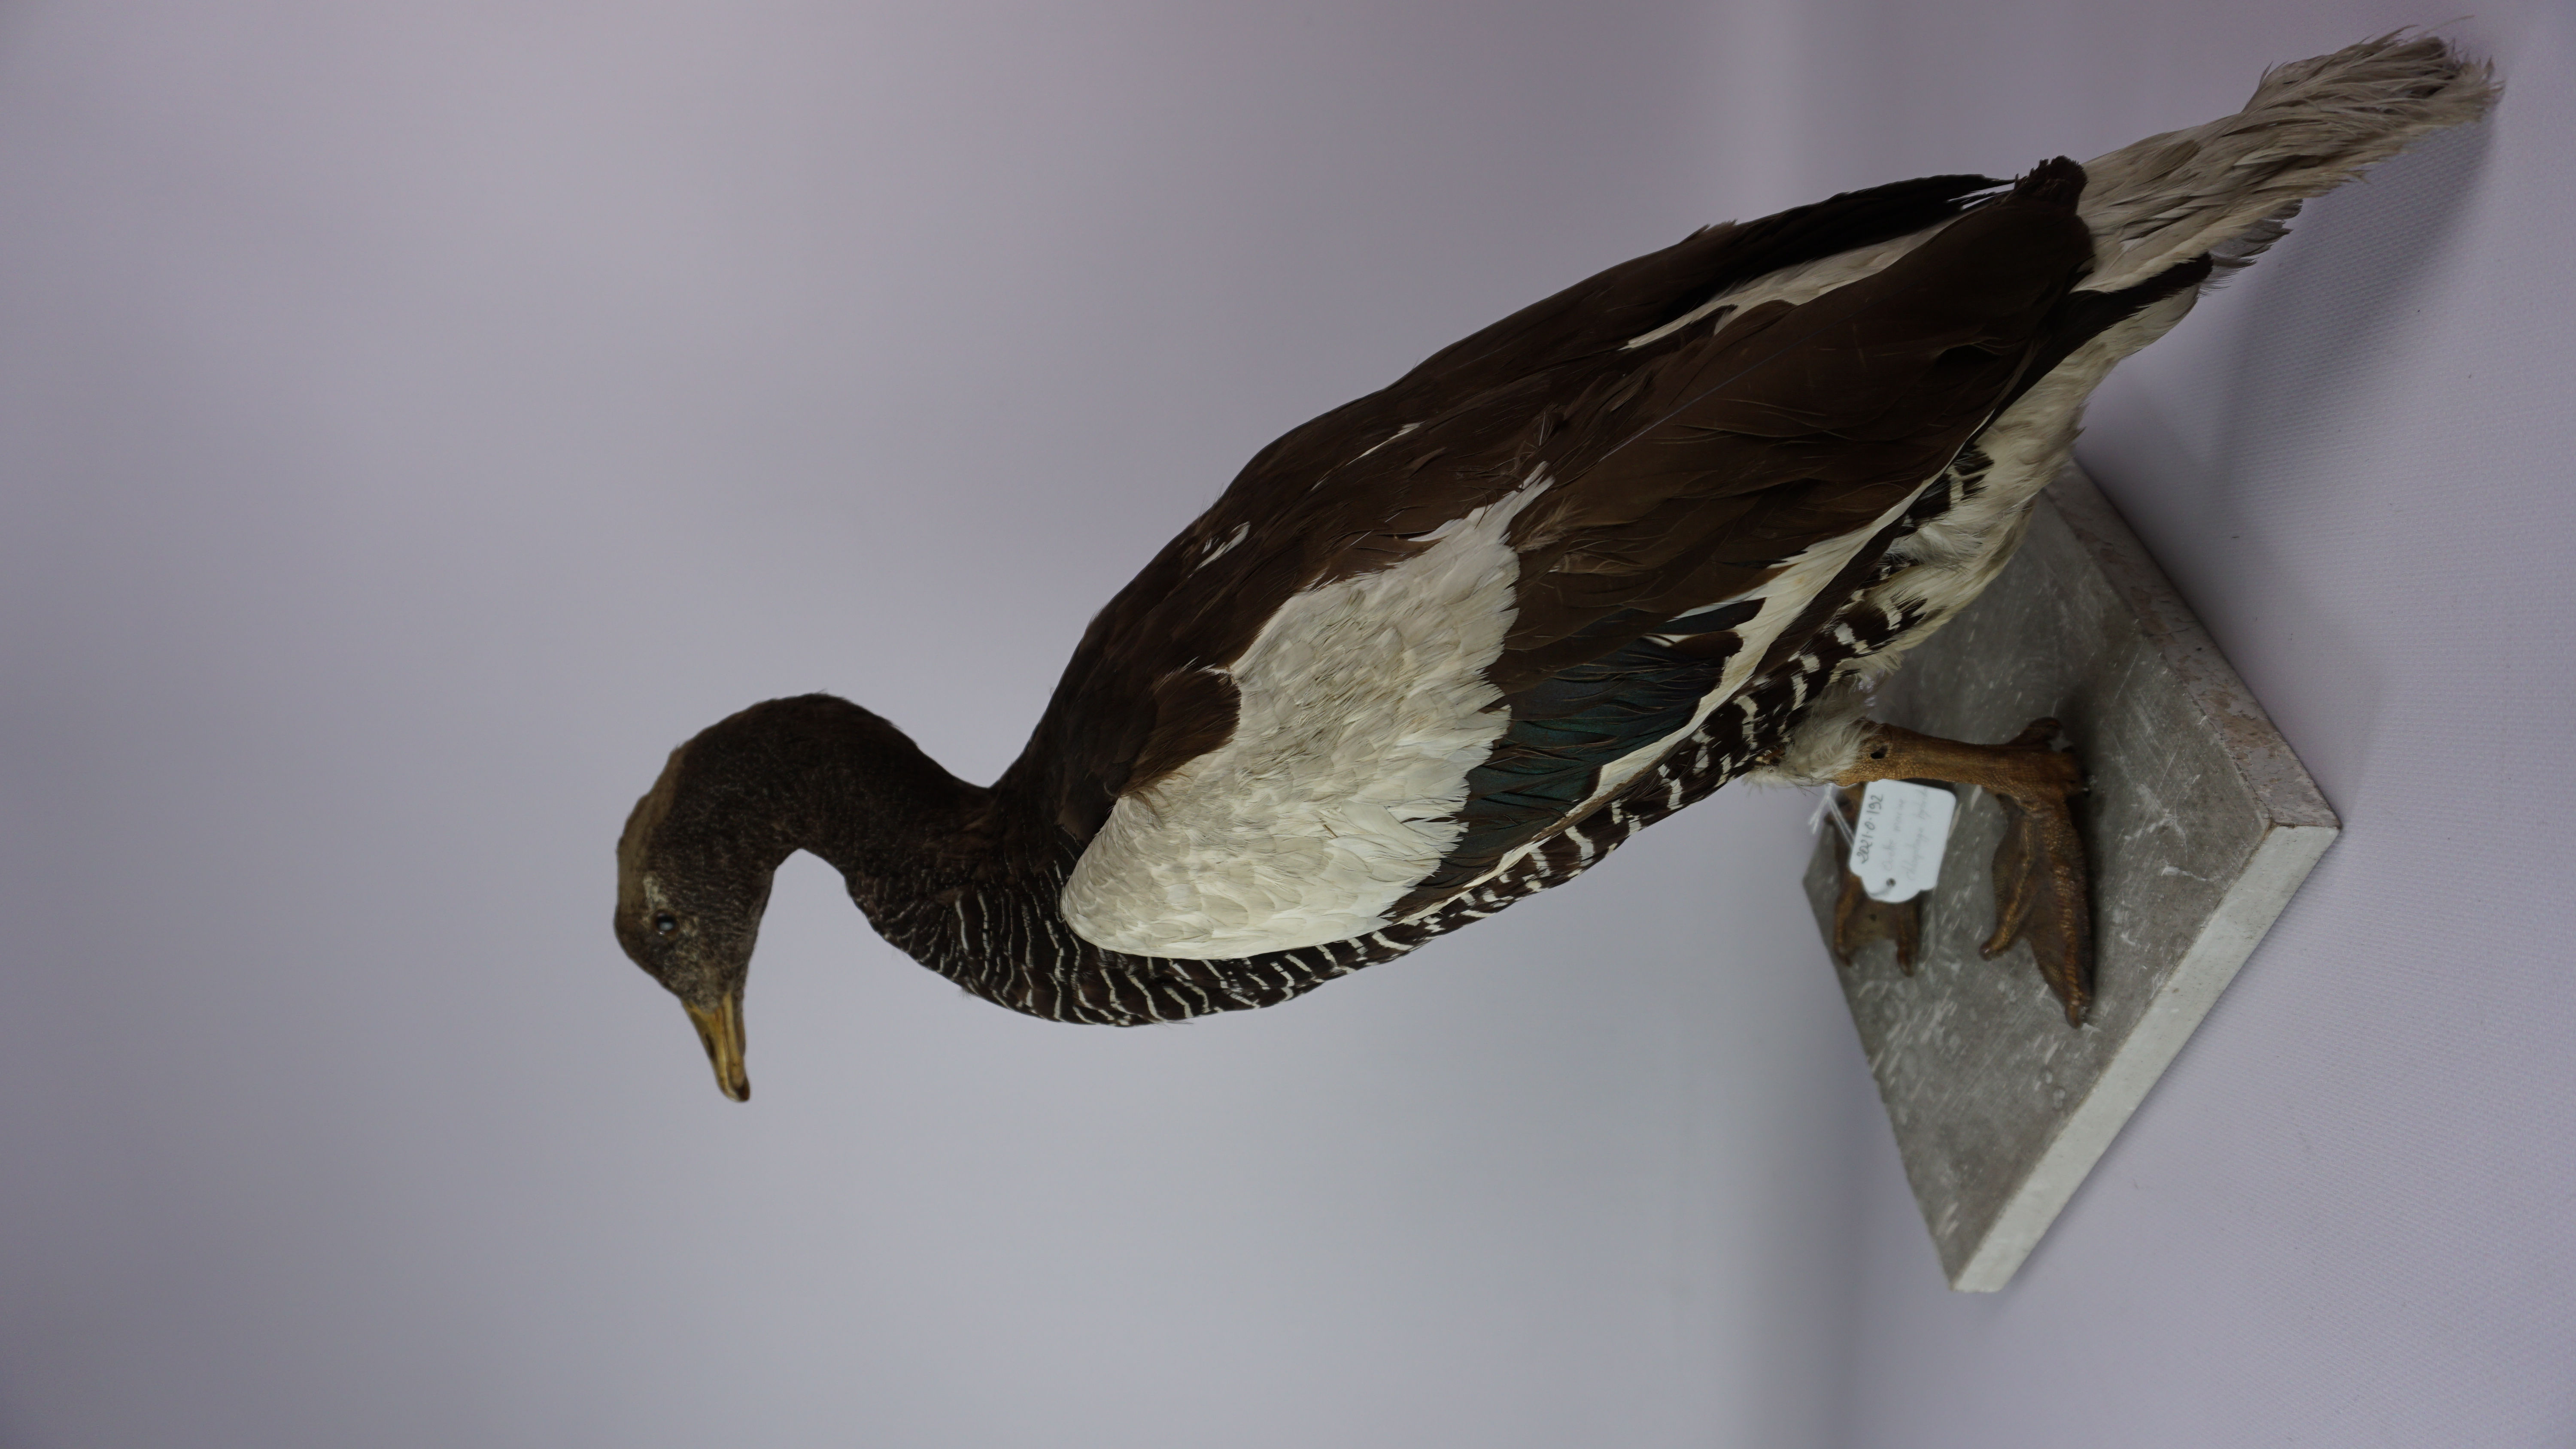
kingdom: Animalia
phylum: Chordata
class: Aves
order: Anseriformes
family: Anatidae
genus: Chloephaga
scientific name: Chloephaga hybrida
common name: Kelp goose
